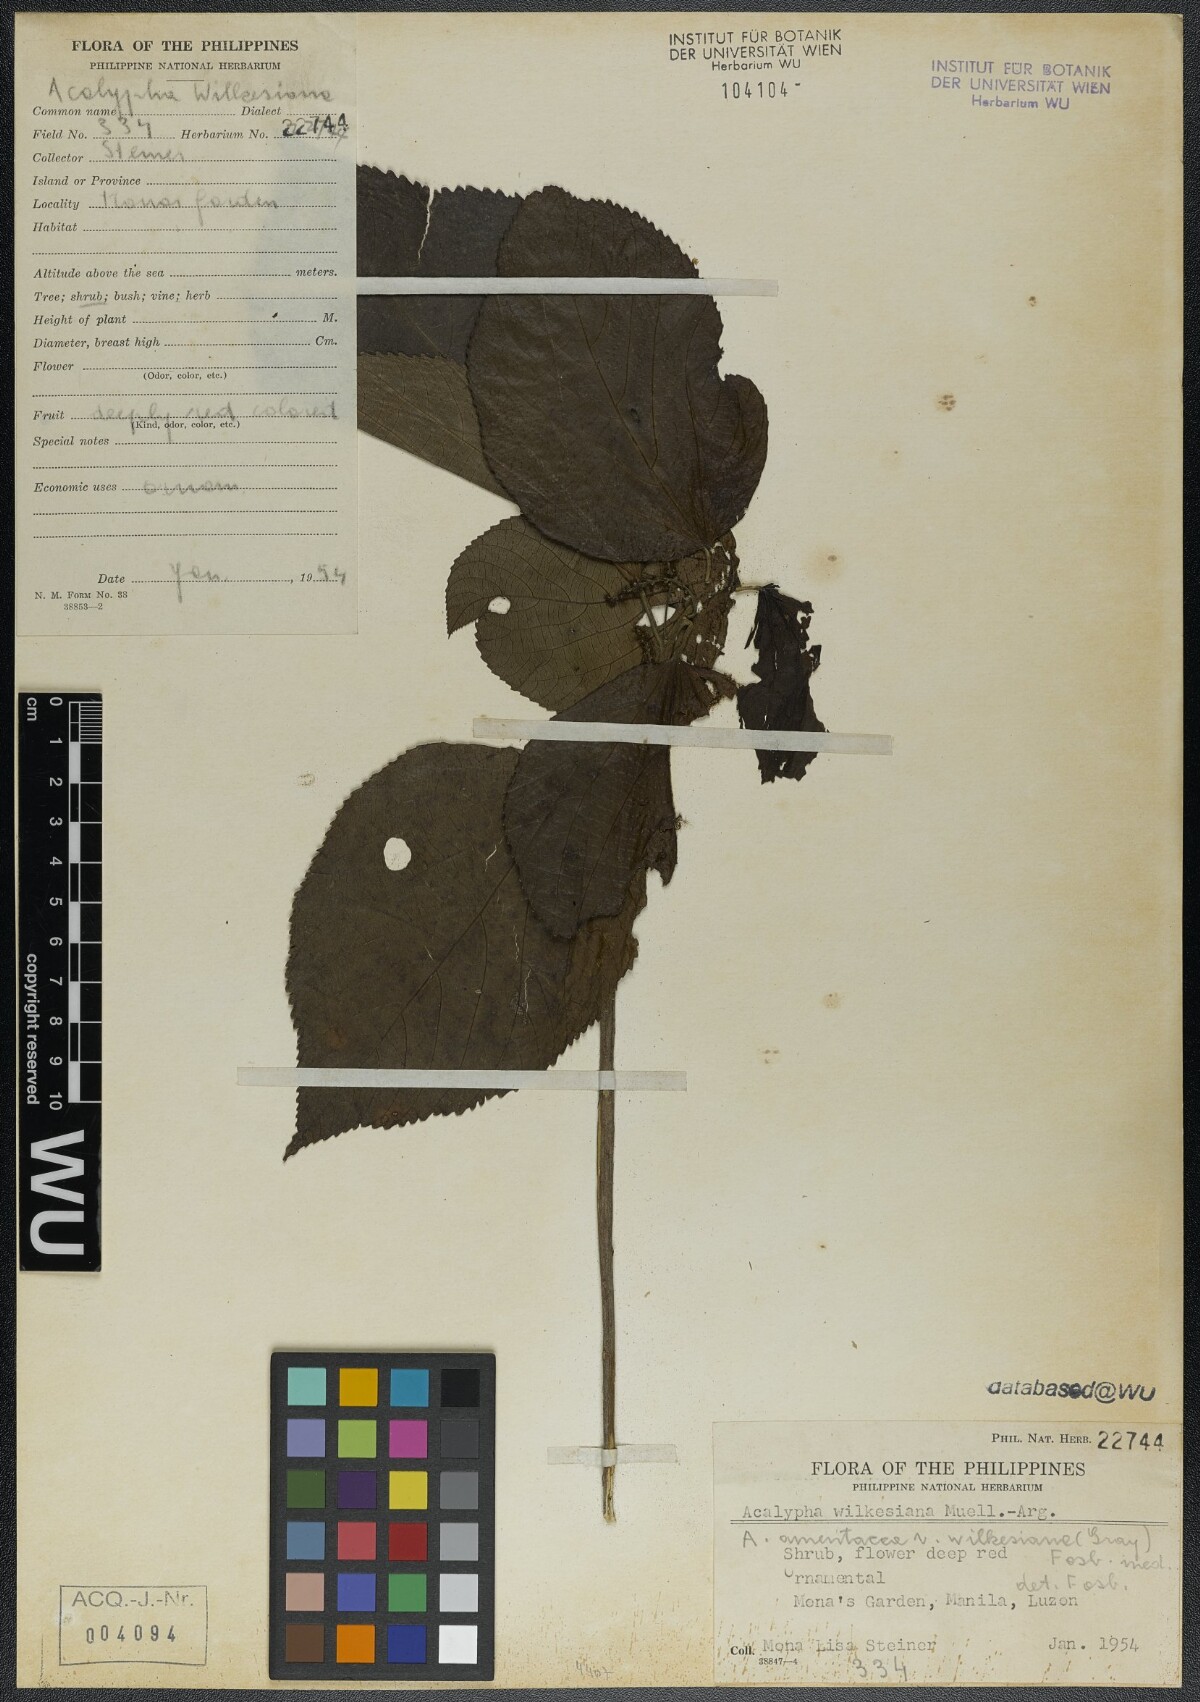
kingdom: Plantae
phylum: Tracheophyta
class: Magnoliopsida
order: Malpighiales
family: Euphorbiaceae
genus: Acalypha
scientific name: Acalypha wilkesiana
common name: Jacob's coat
